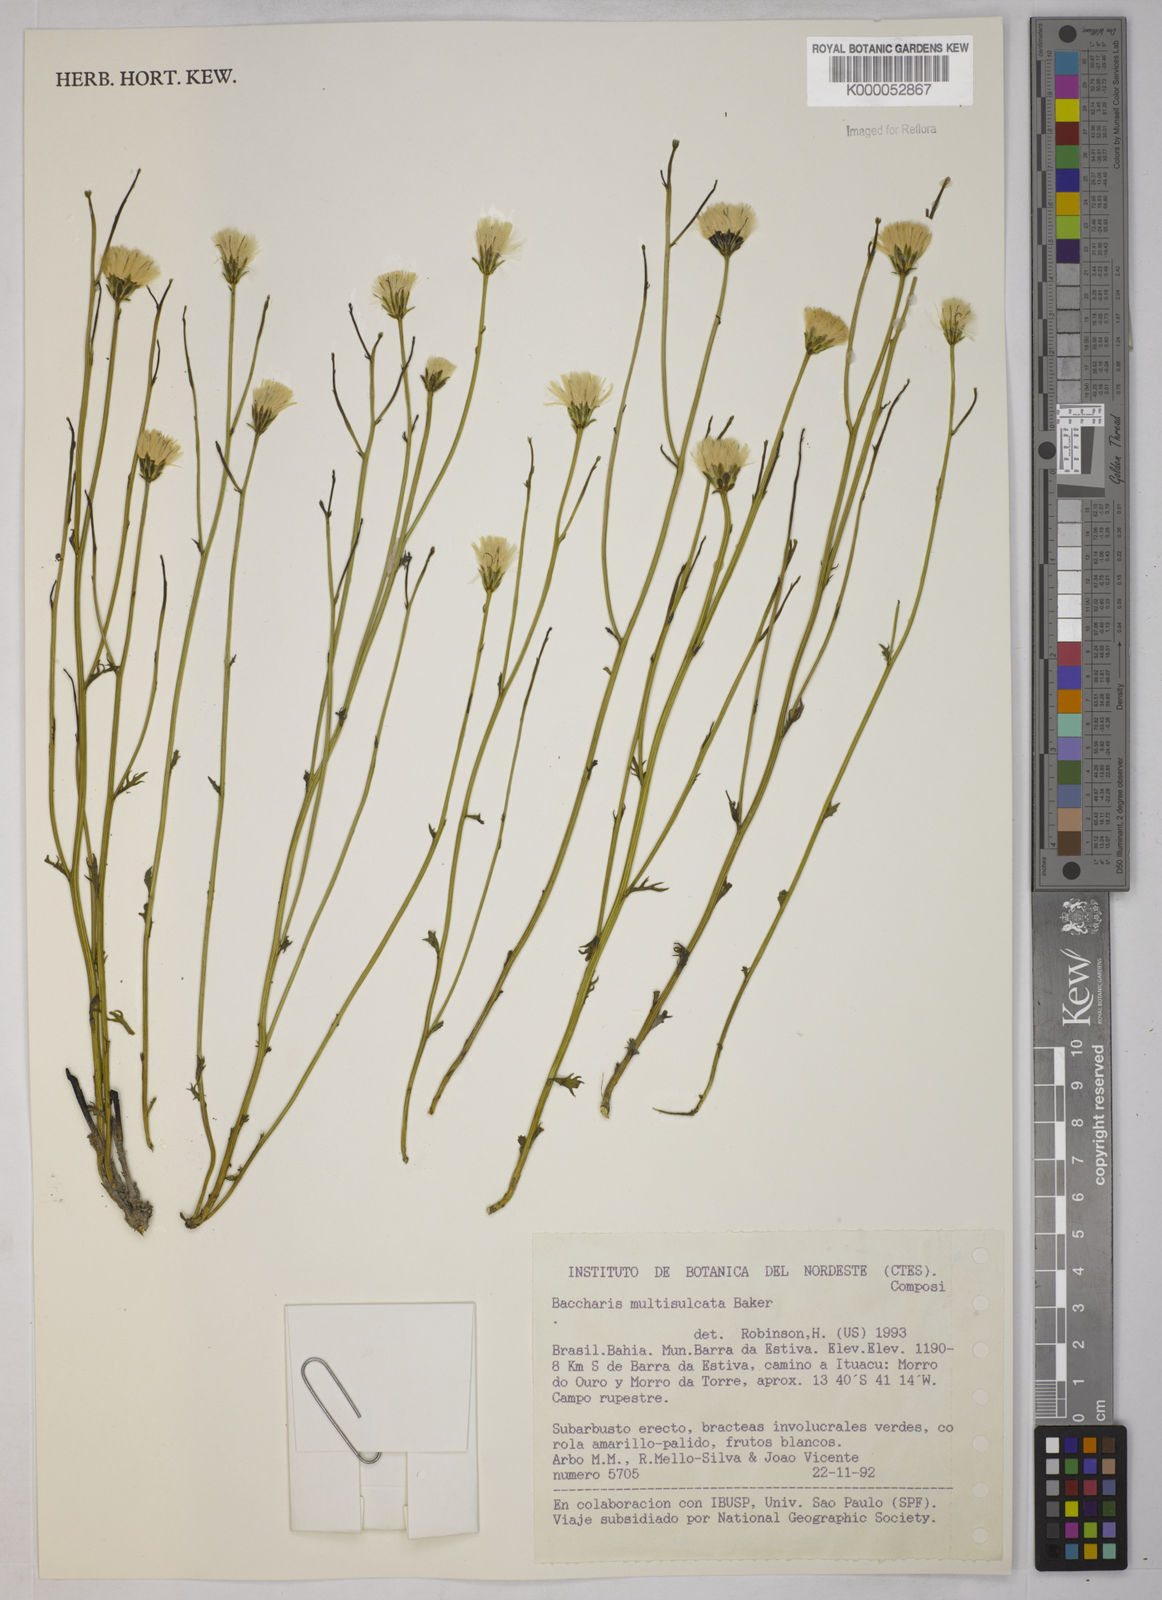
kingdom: Plantae
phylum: Tracheophyta
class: Magnoliopsida
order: Asterales
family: Asteraceae
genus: Baccharis
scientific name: Baccharis orbignyana
